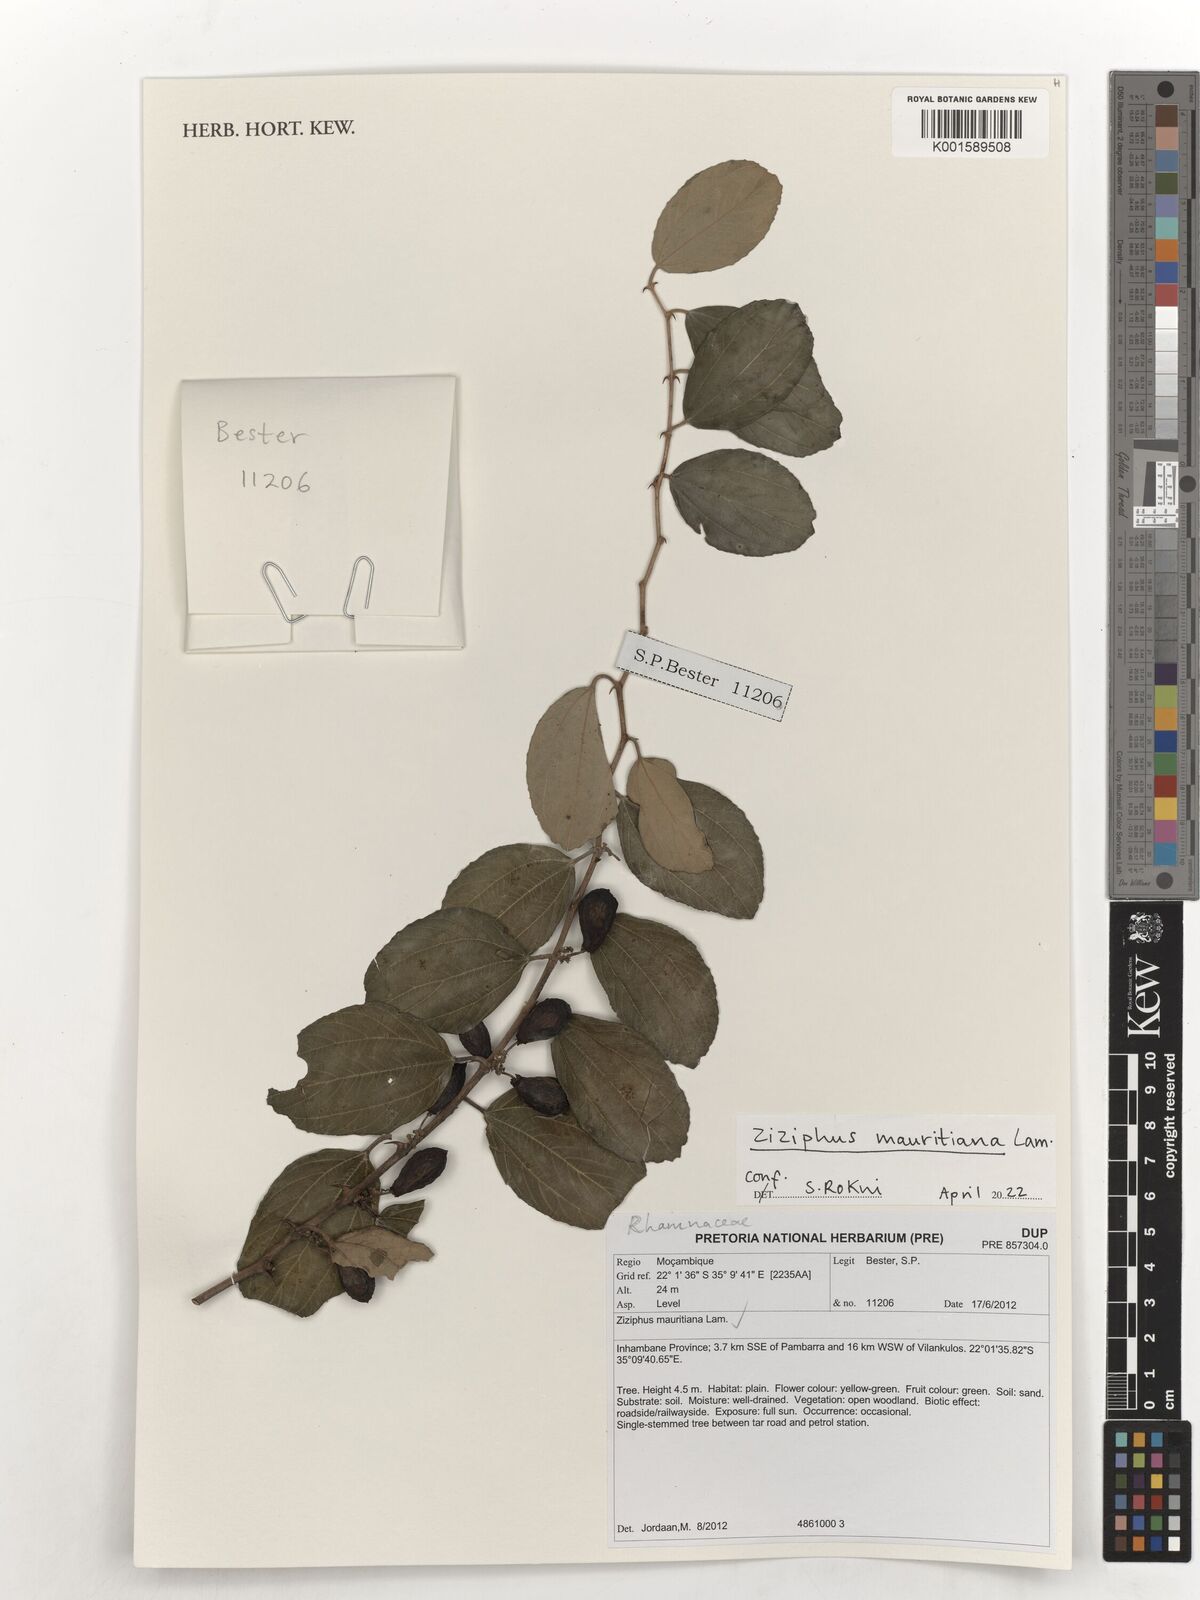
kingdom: Plantae
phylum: Tracheophyta
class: Magnoliopsida
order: Rosales
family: Rhamnaceae
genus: Ziziphus
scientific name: Ziziphus mauritiana
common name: Indian jujube
